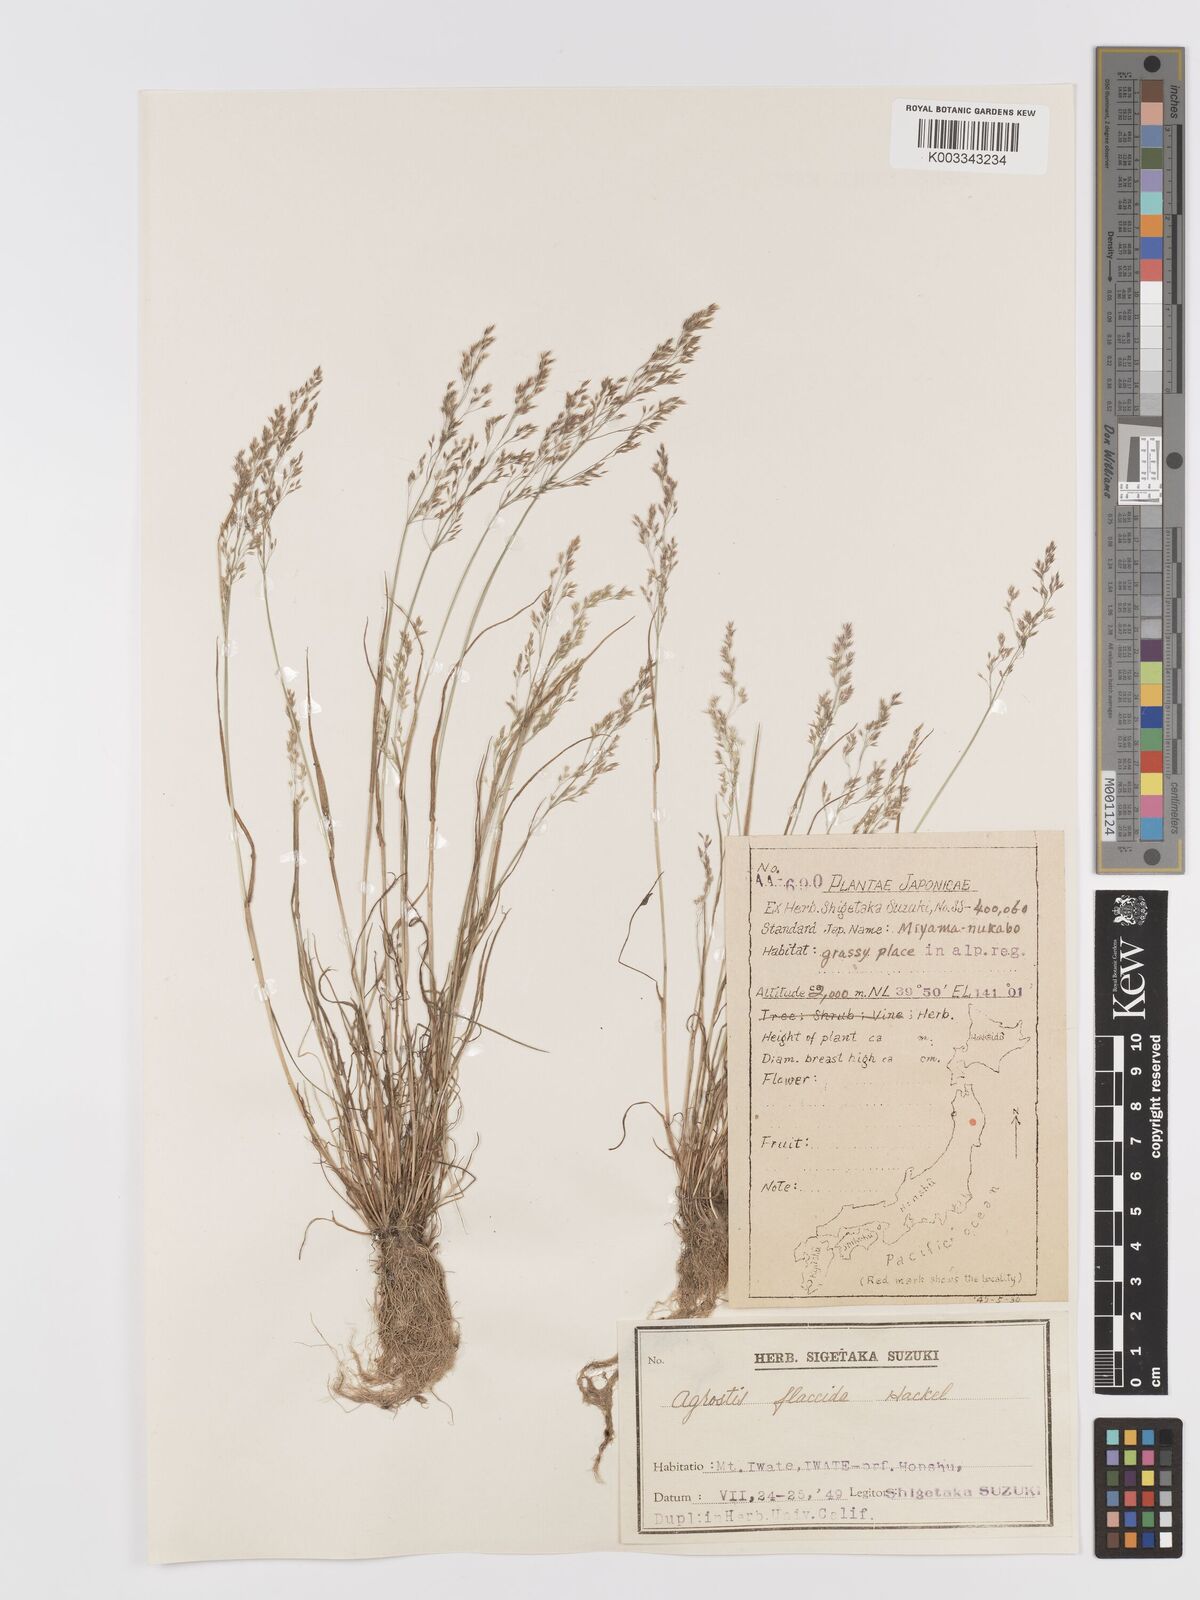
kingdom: Plantae
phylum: Tracheophyta
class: Liliopsida
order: Poales
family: Poaceae
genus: Agrostis
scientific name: Agrostis flaccida
